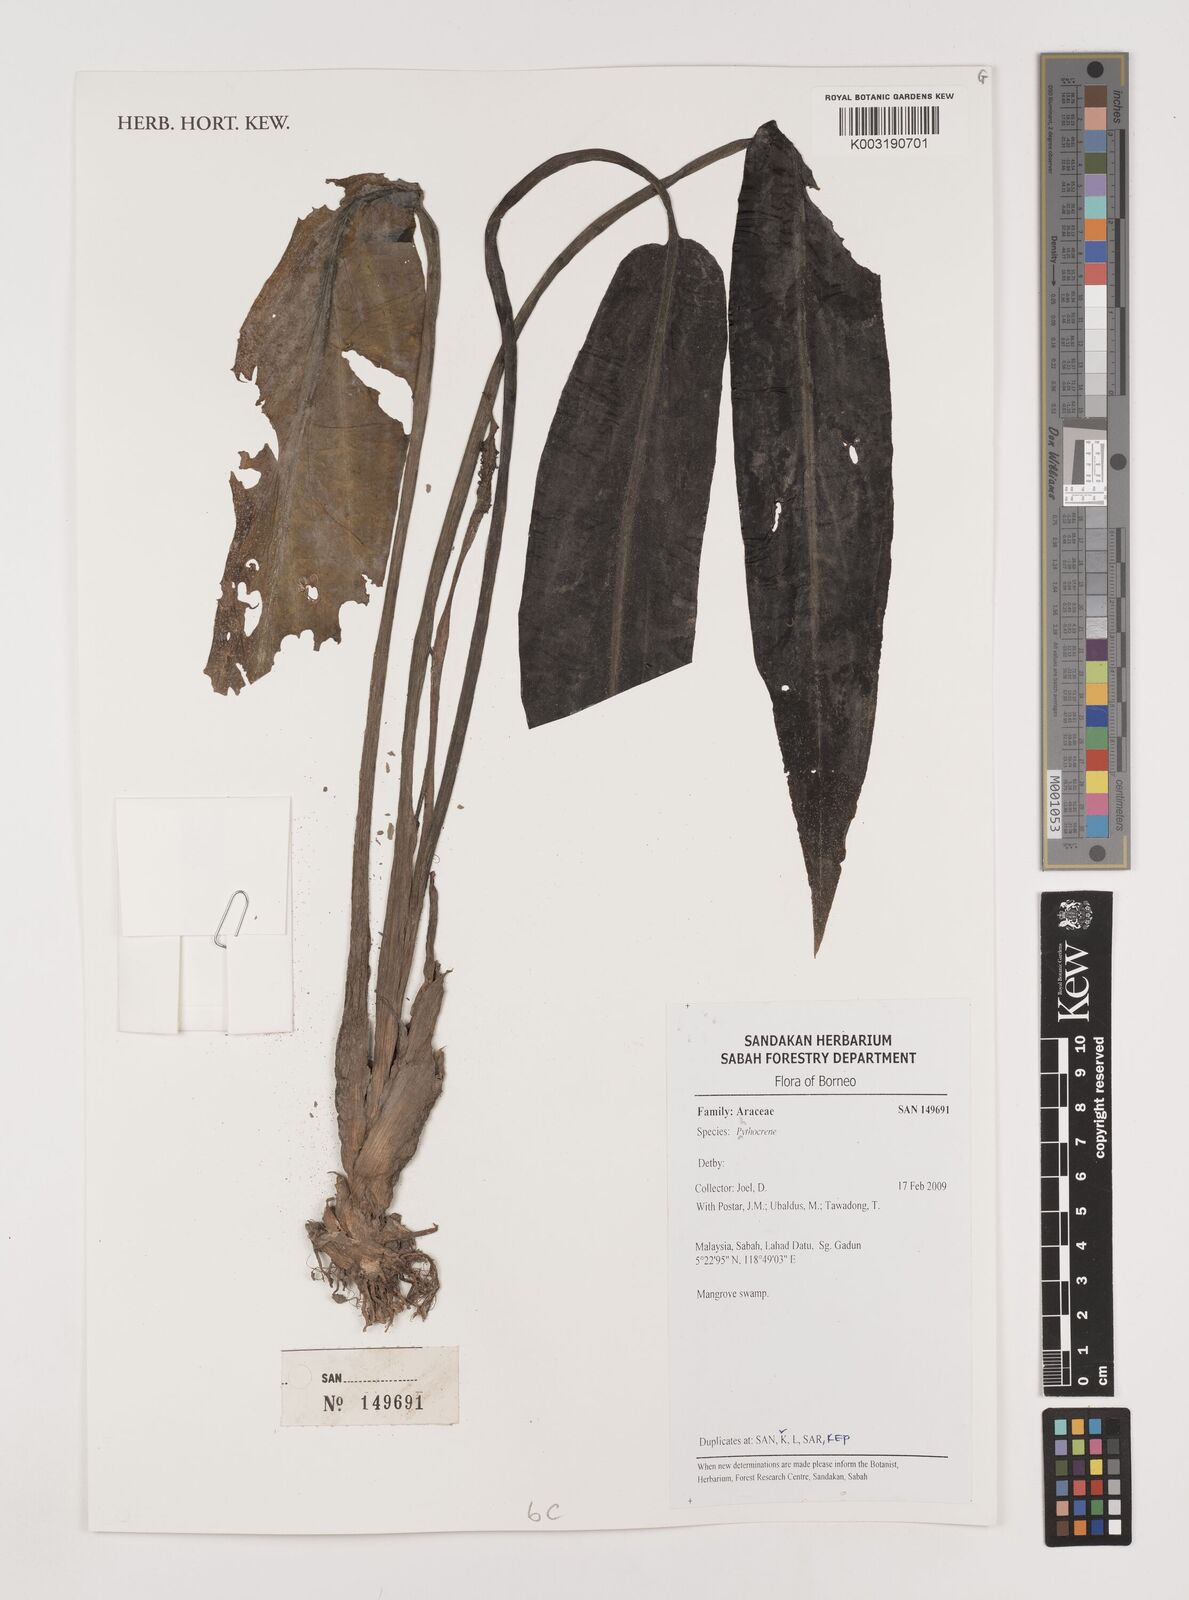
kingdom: Plantae
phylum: Tracheophyta
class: Liliopsida
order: Alismatales
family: Araceae
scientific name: Araceae
